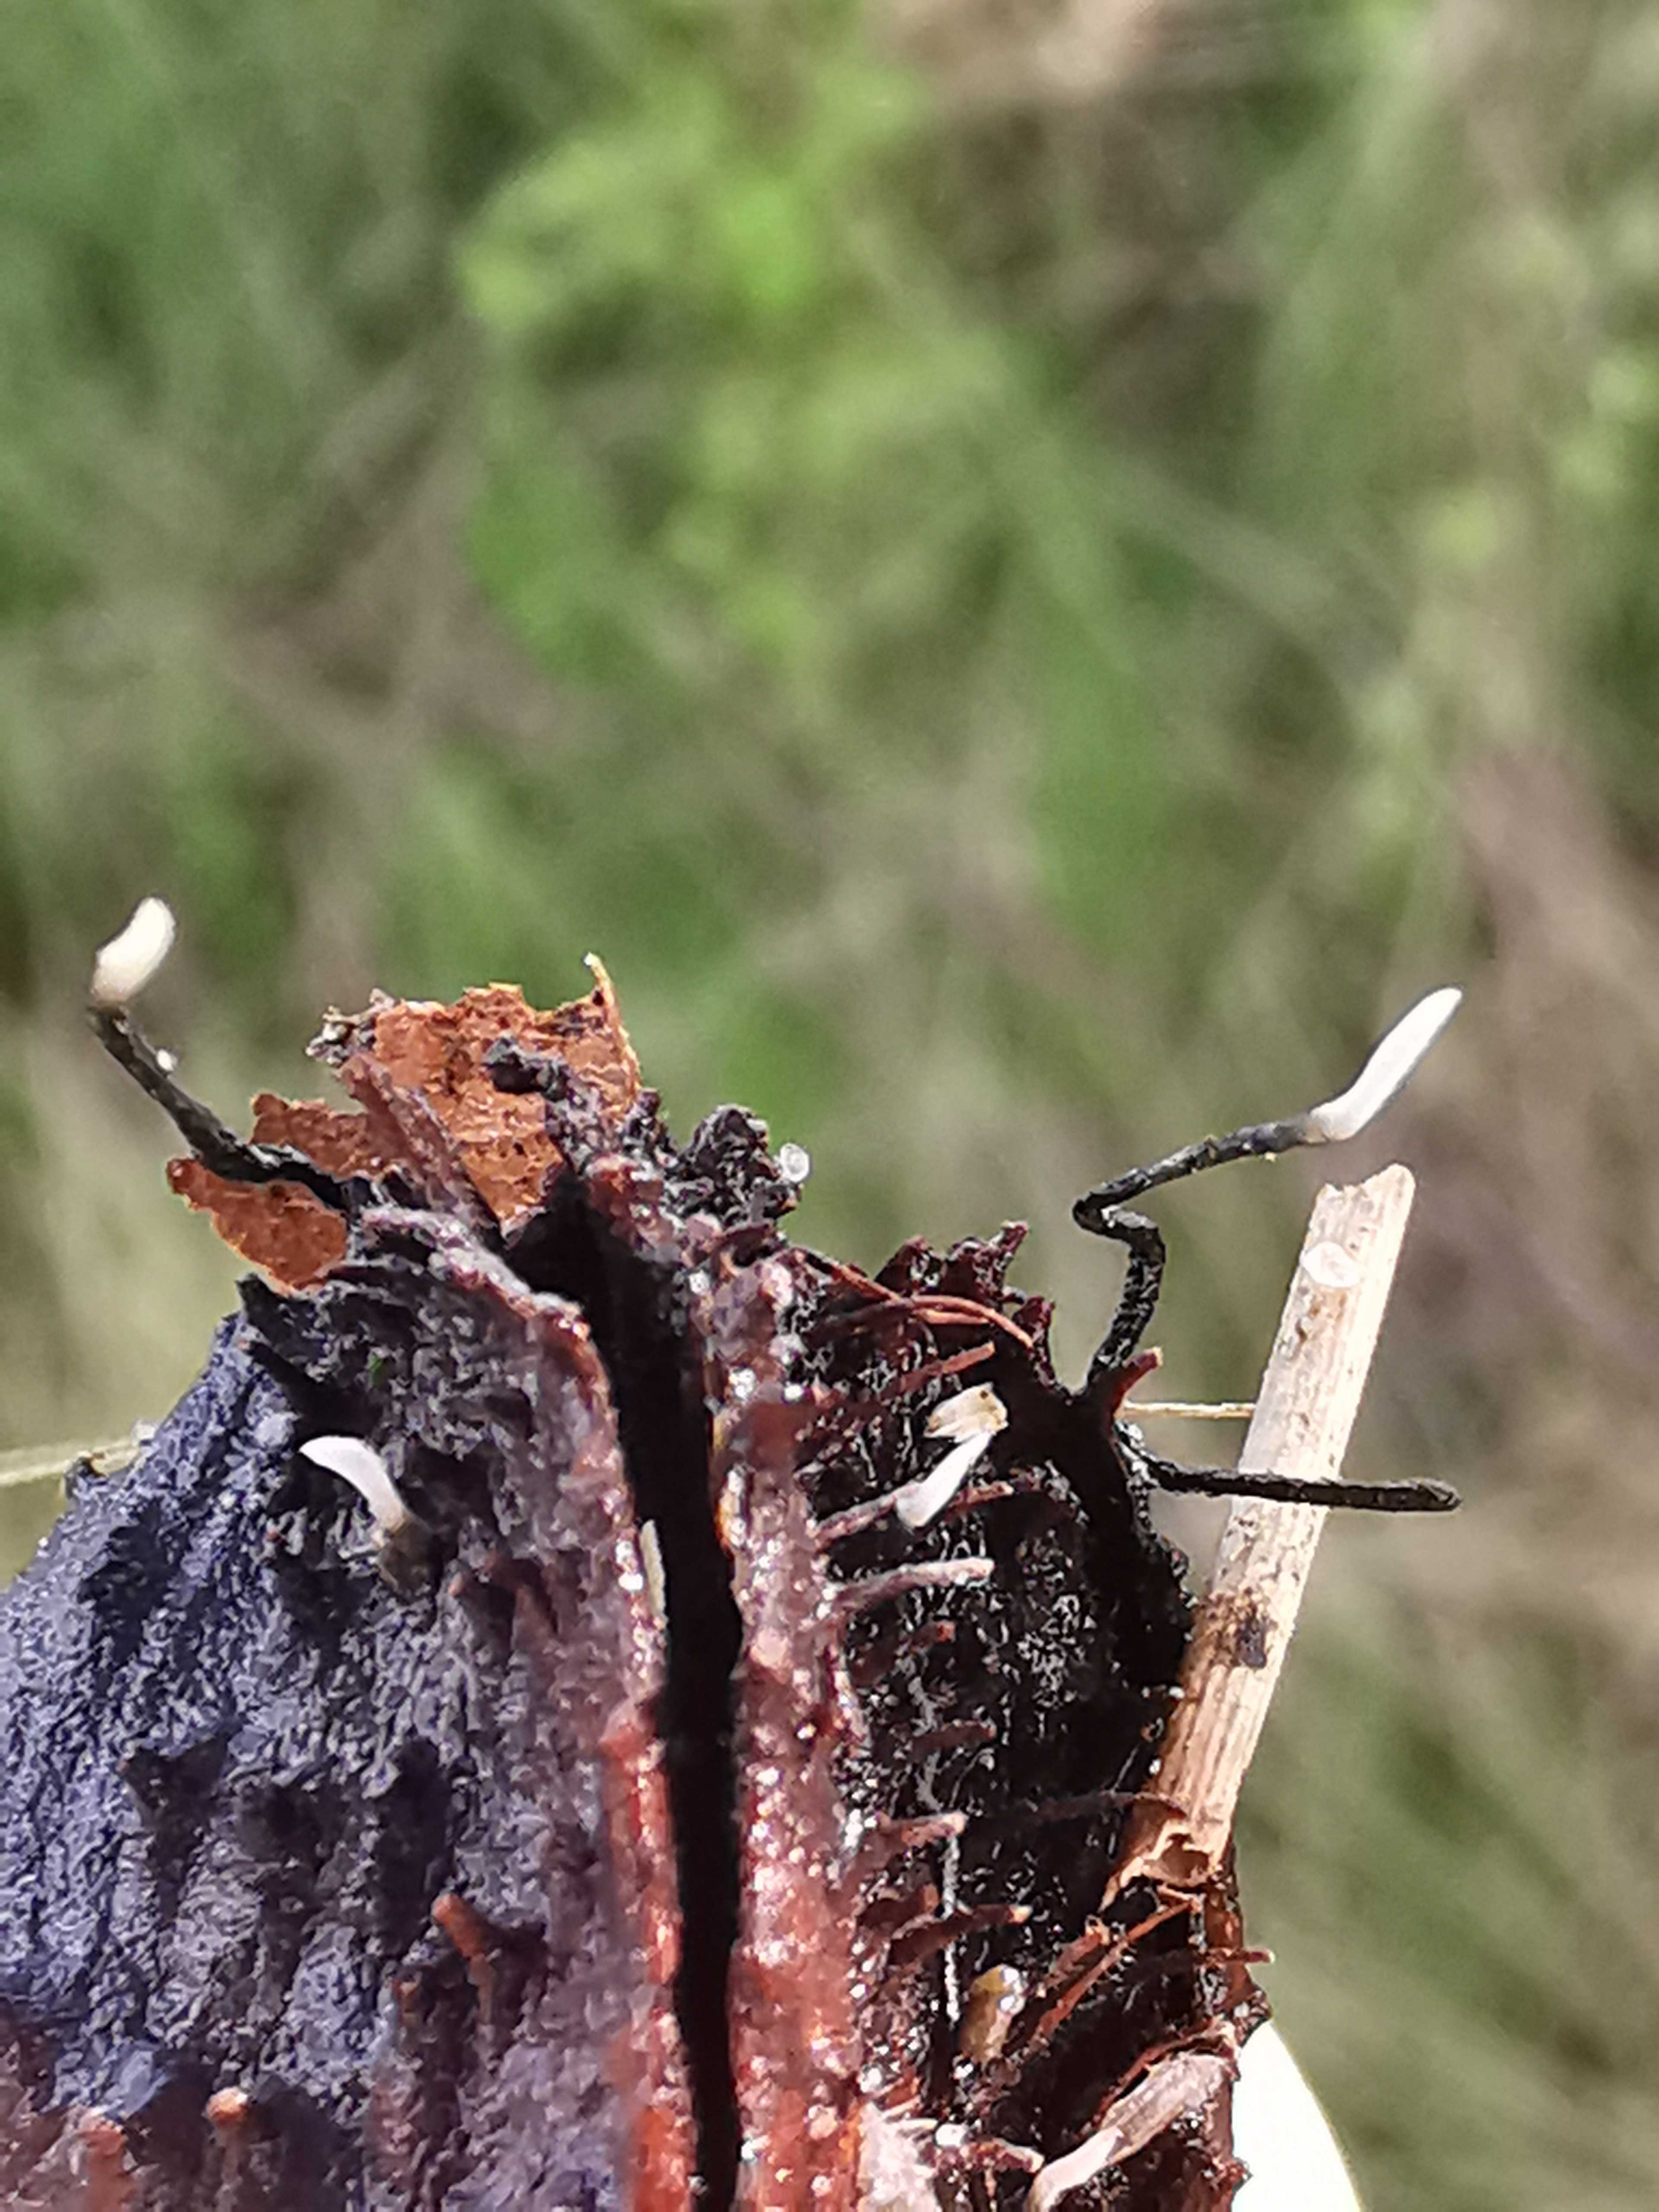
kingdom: Fungi
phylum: Ascomycota
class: Sordariomycetes
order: Xylariales
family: Xylariaceae
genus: Xylaria
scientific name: Xylaria carpophila
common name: bogskål-stødsvamp
